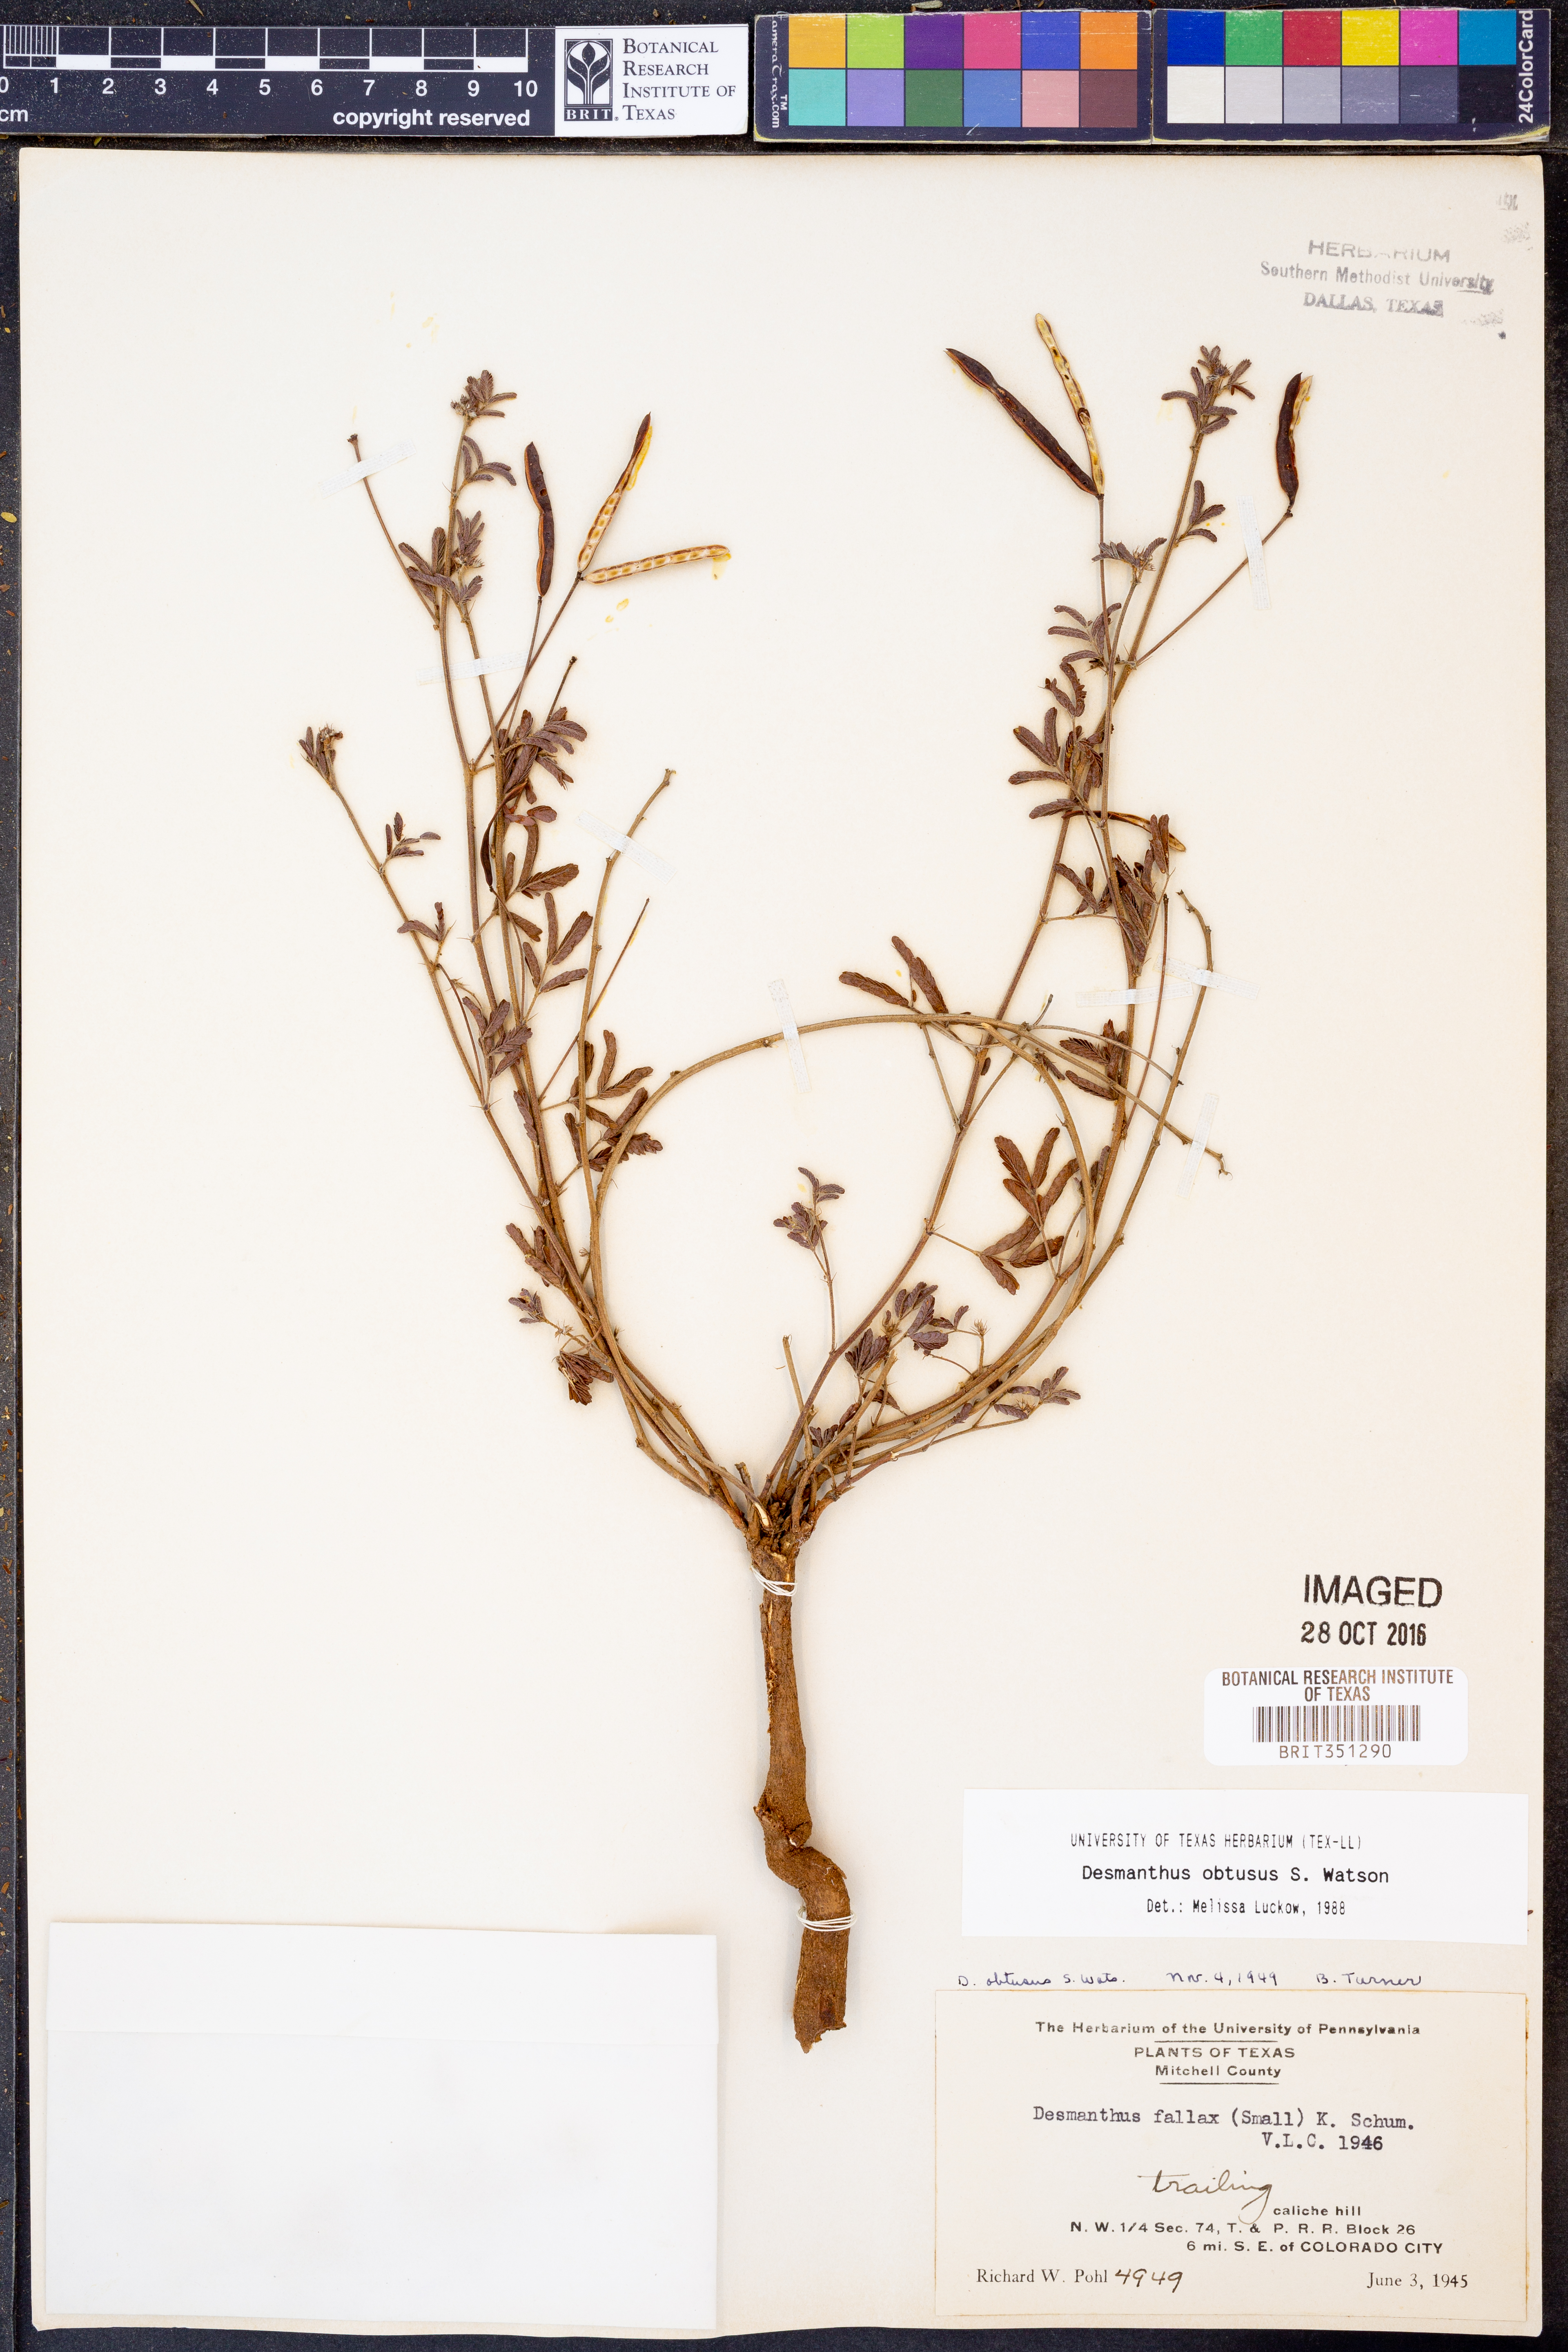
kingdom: Plantae
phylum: Tracheophyta
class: Magnoliopsida
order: Fabales
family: Fabaceae
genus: Desmanthus
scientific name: Desmanthus obtusus
